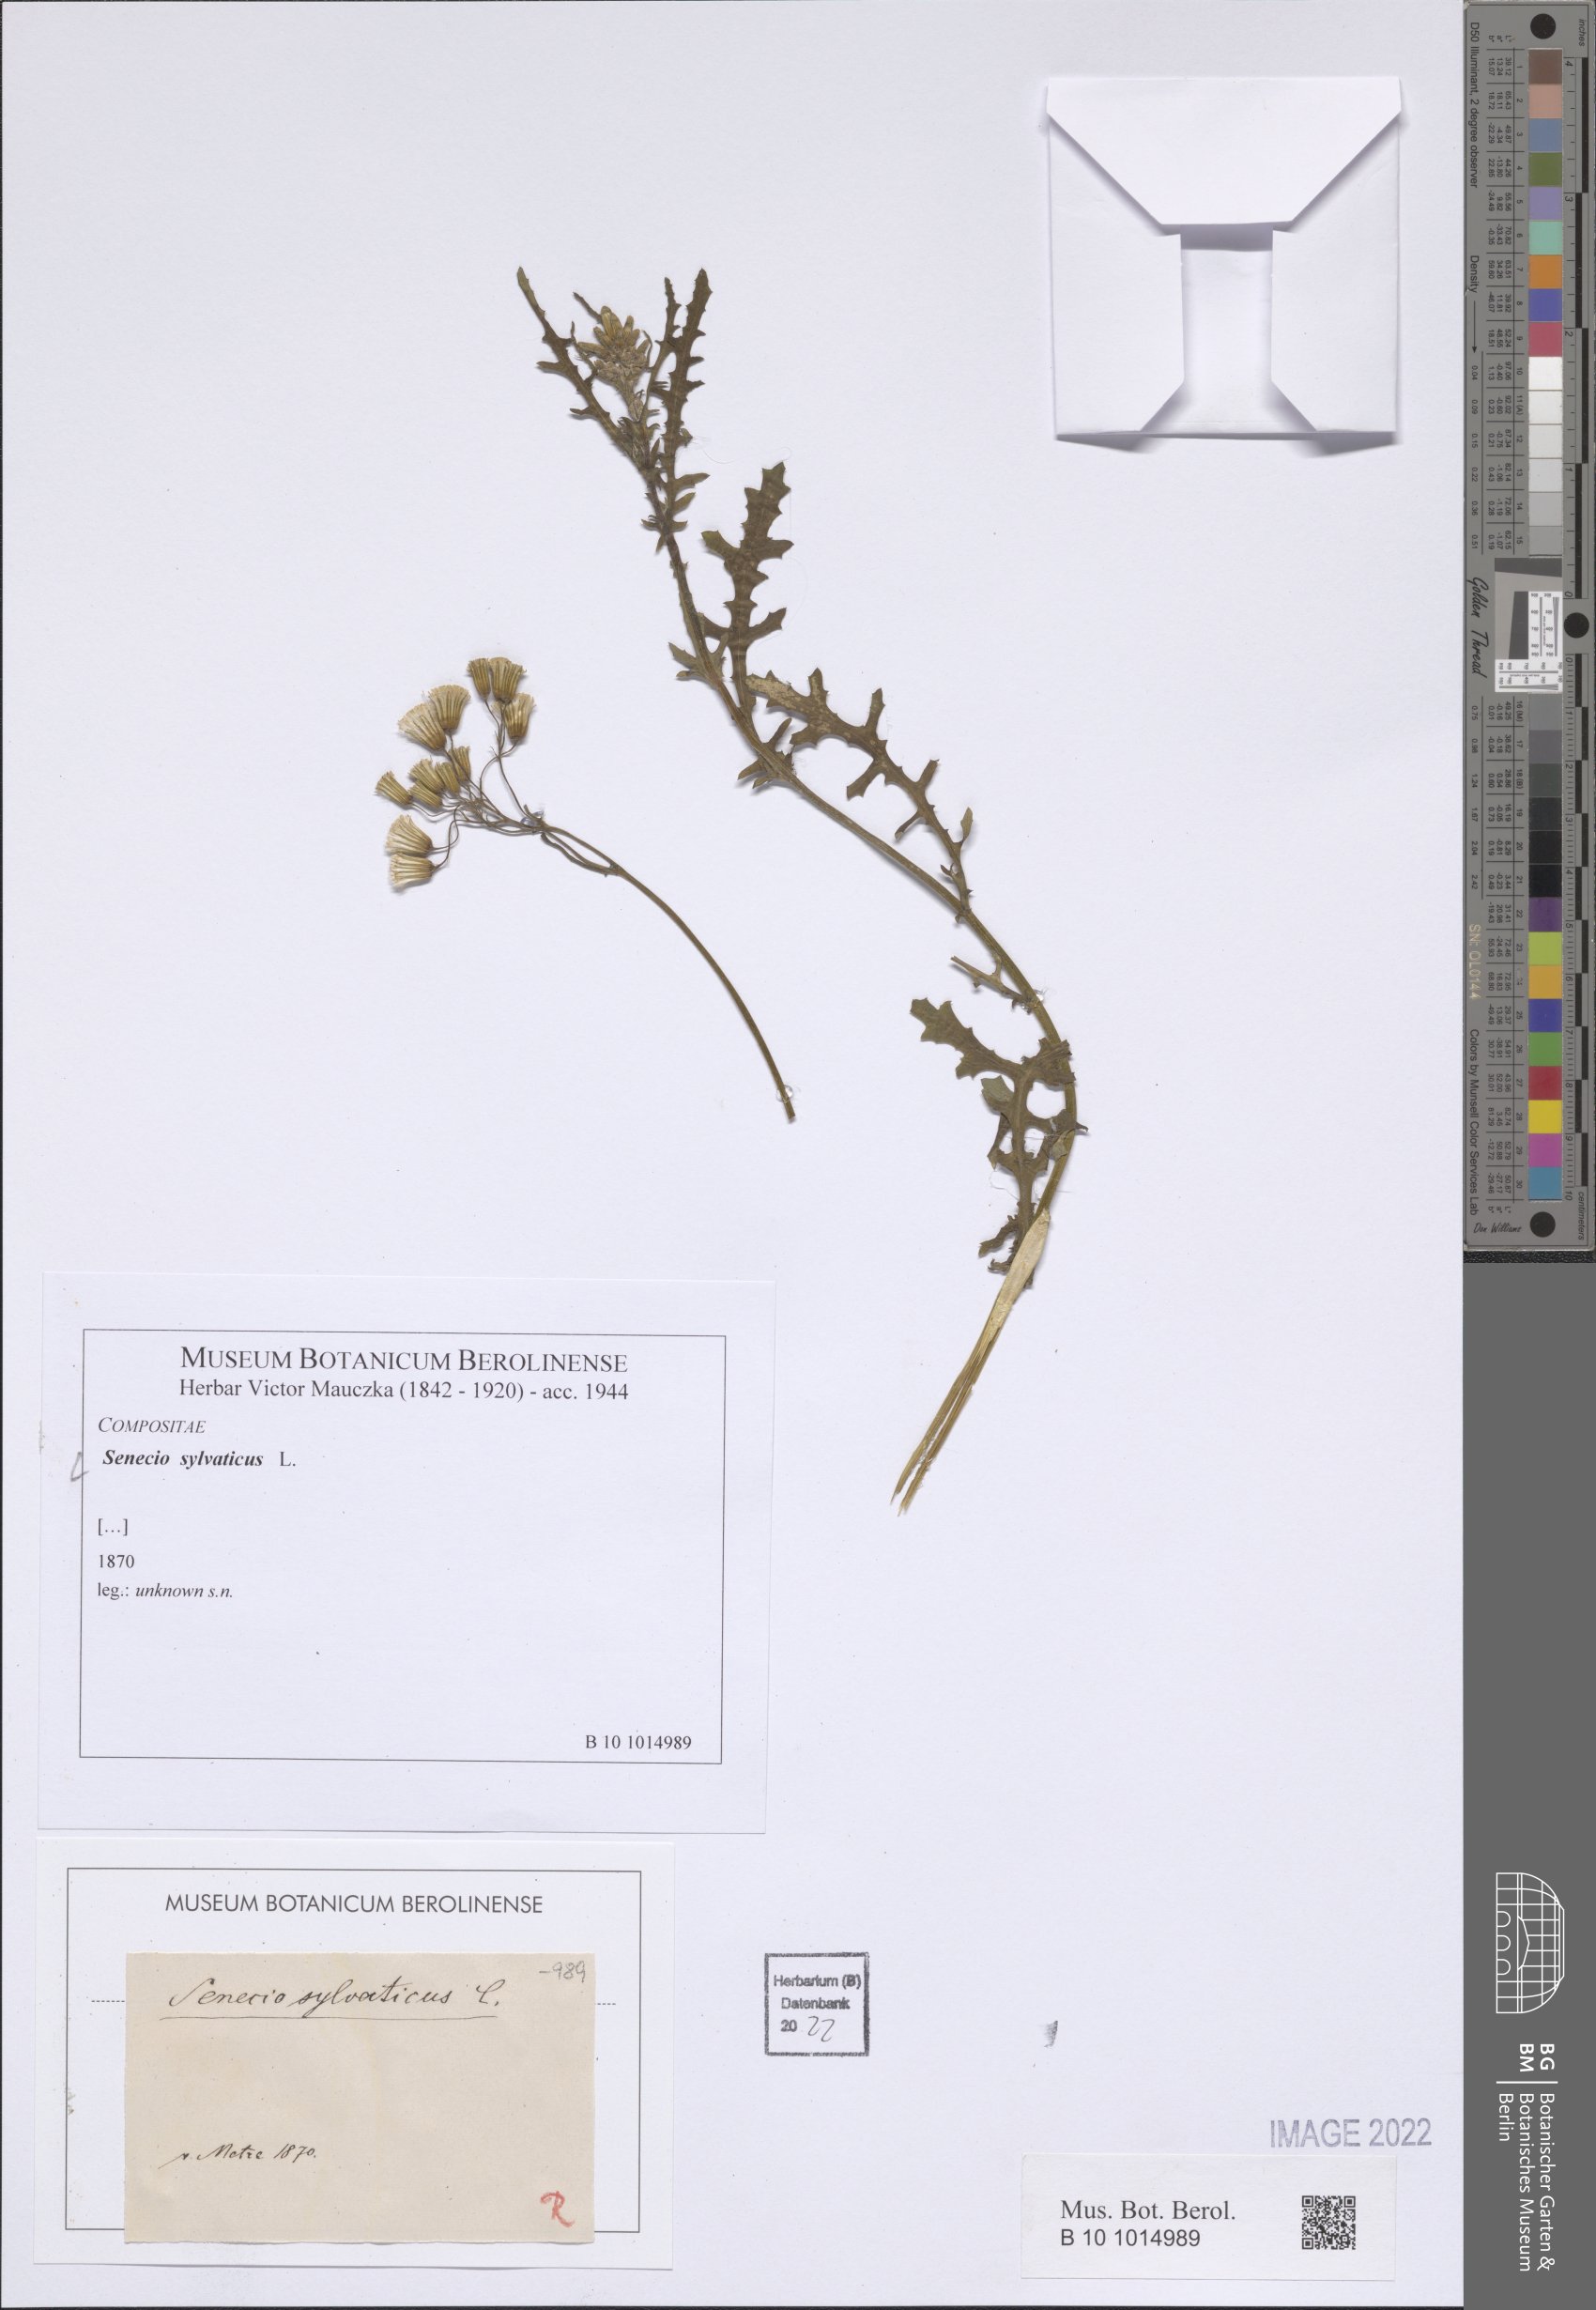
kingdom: Plantae
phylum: Tracheophyta
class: Magnoliopsida
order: Asterales
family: Asteraceae
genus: Senecio
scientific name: Senecio sylvaticus
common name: Woodland ragwort
